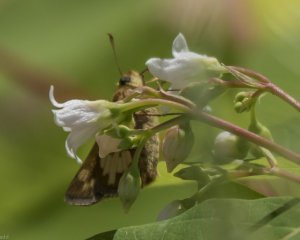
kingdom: Animalia
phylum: Arthropoda
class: Insecta
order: Lepidoptera
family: Hesperiidae
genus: Polites
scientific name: Polites coras
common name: Peck's Skipper
